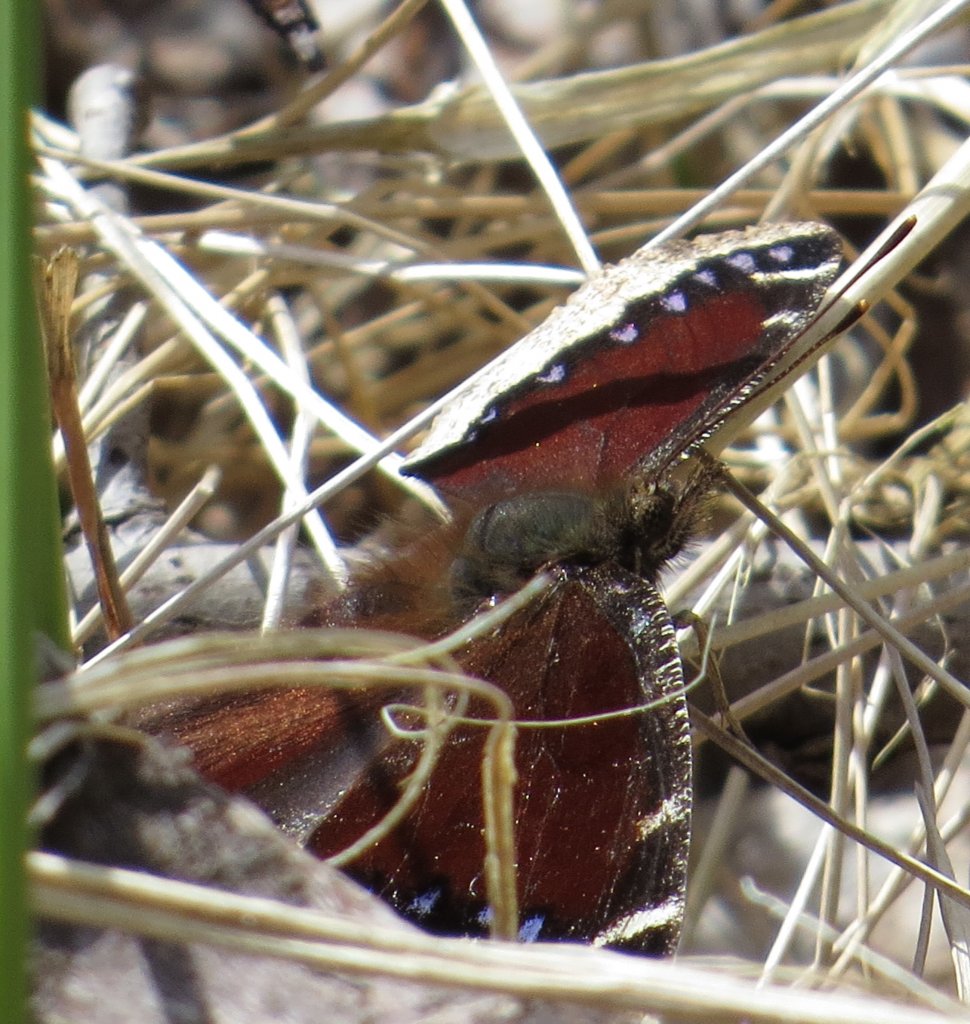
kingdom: Animalia
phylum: Arthropoda
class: Insecta
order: Lepidoptera
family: Nymphalidae
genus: Nymphalis
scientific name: Nymphalis antiopa
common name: Mourning Cloak
